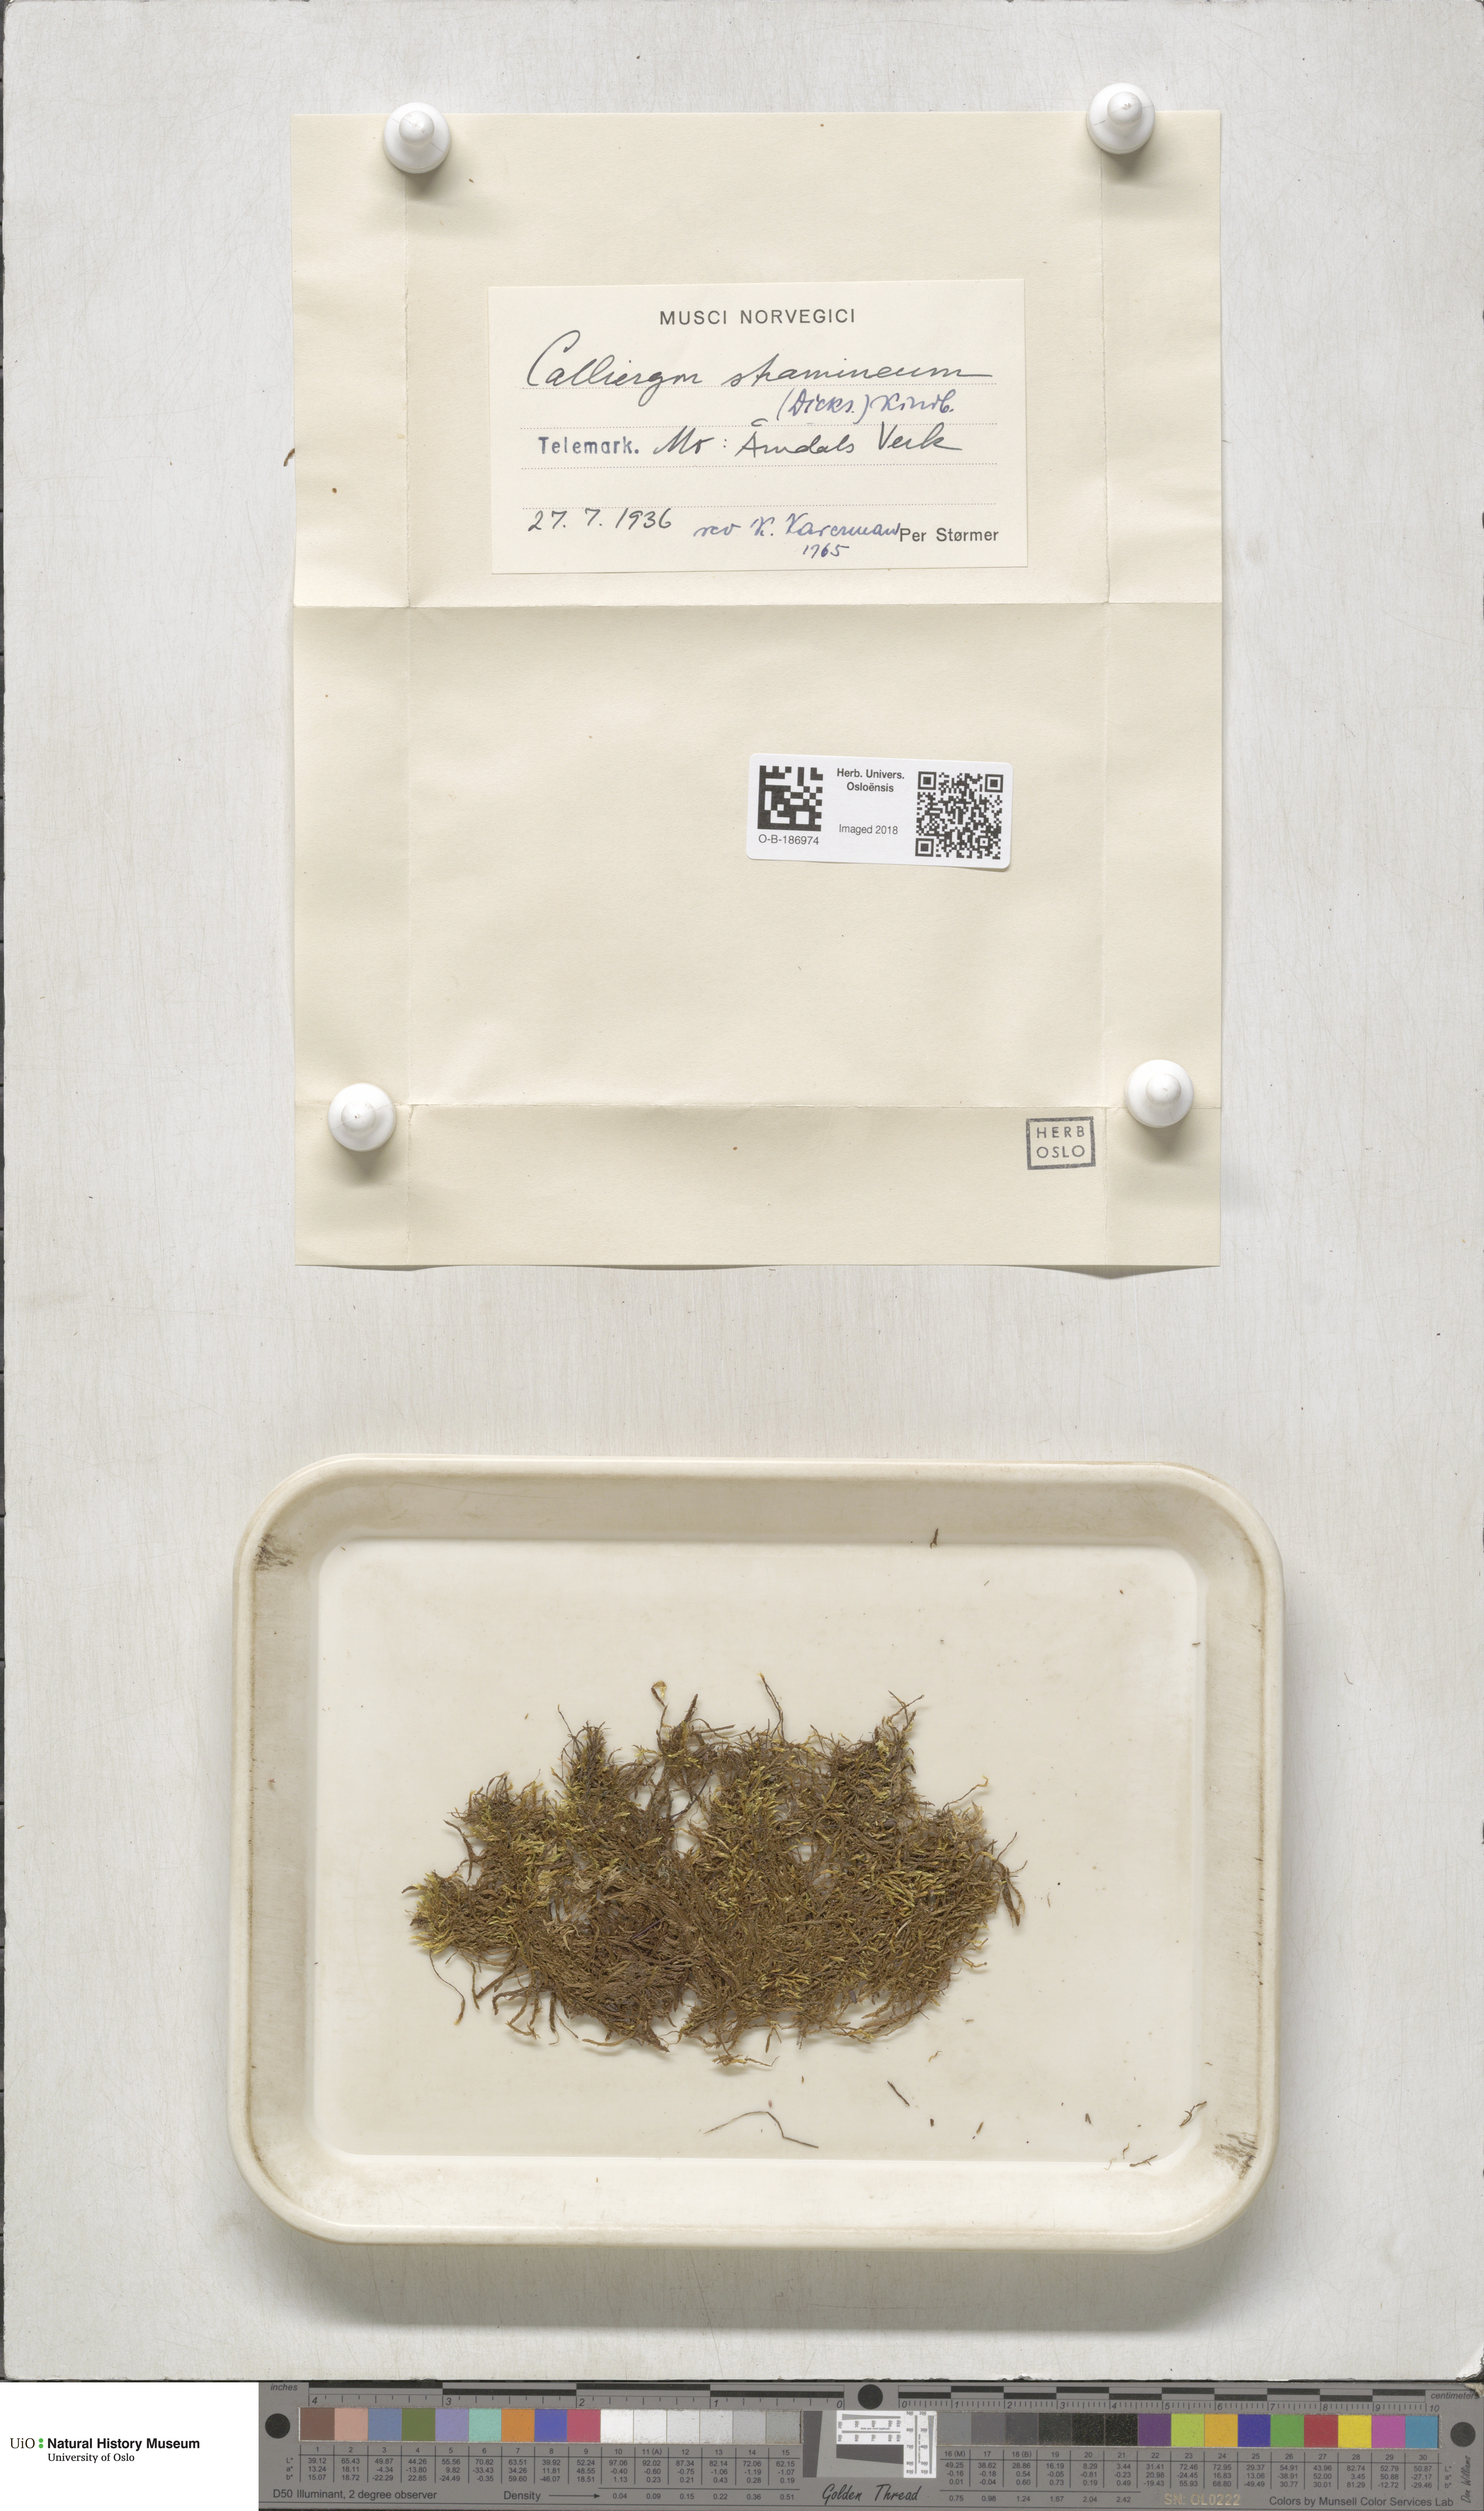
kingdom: Plantae
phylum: Bryophyta
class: Bryopsida
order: Hypnales
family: Calliergonaceae
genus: Straminergon
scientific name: Straminergon stramineum
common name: Straw moss
